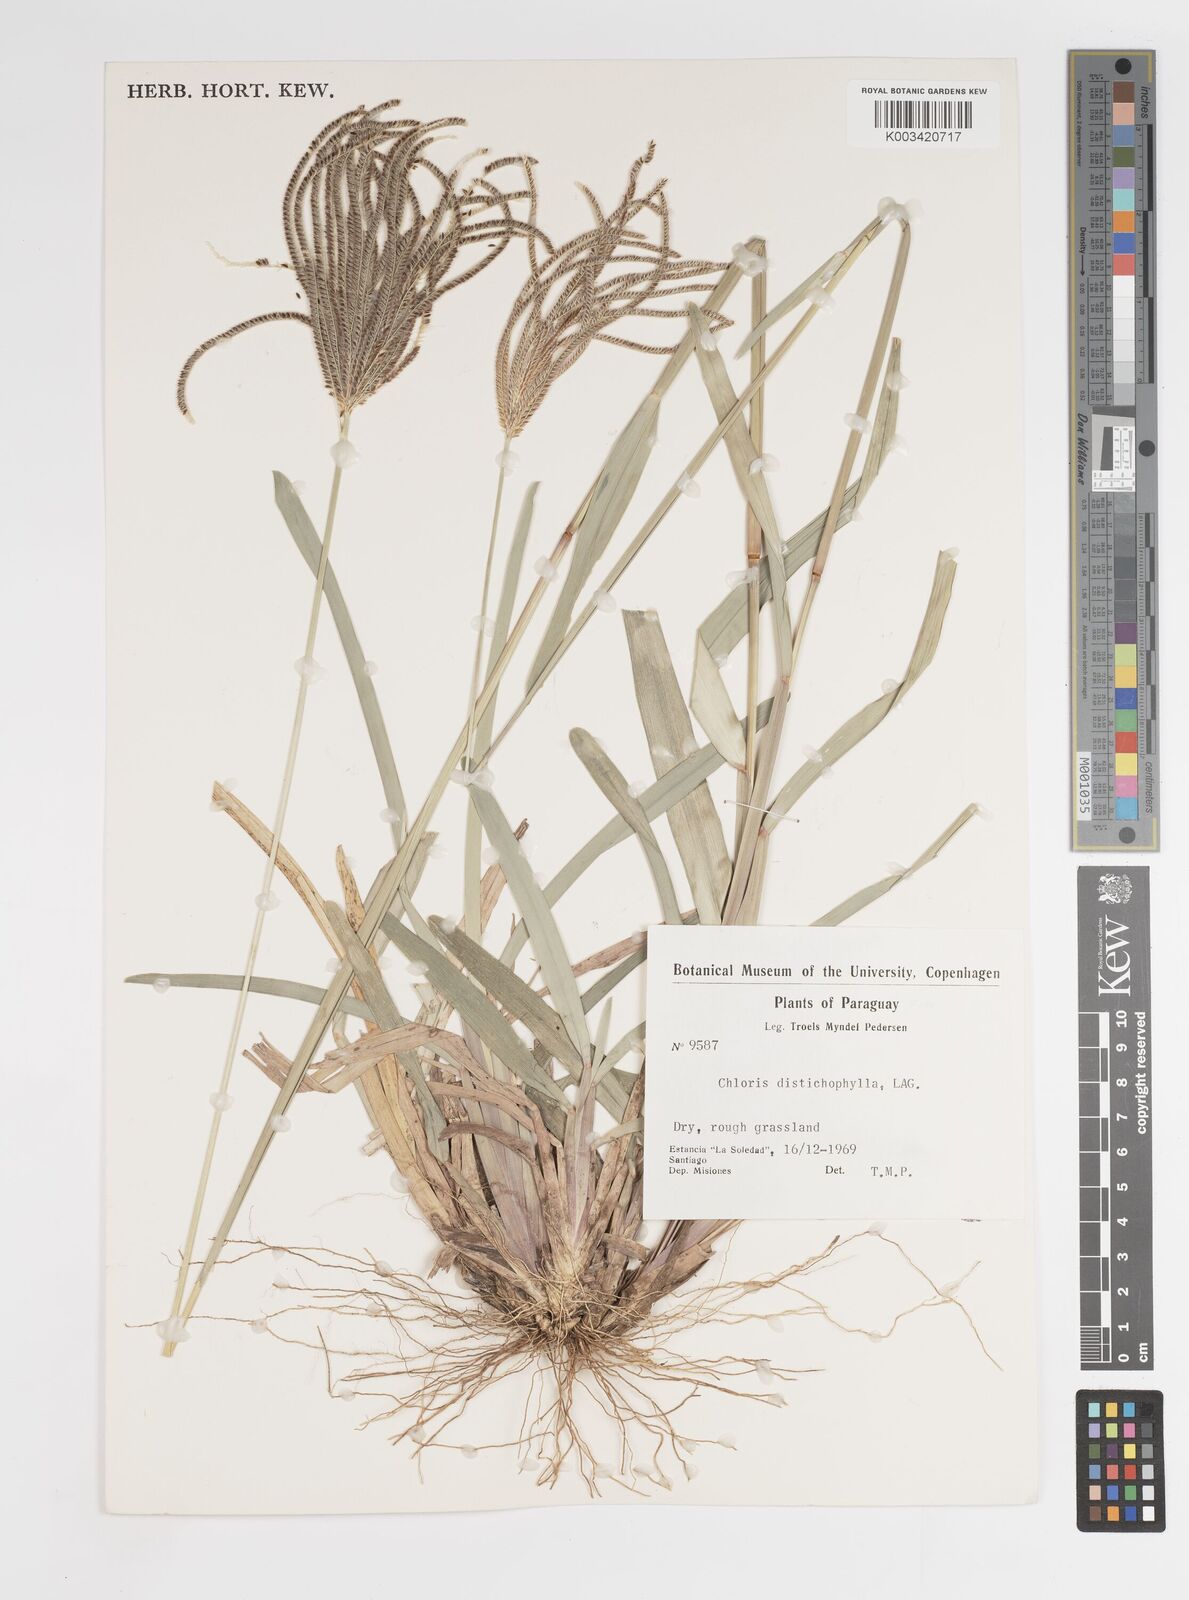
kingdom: Plantae
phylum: Tracheophyta
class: Liliopsida
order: Poales
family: Poaceae
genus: Eustachys
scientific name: Eustachys distichophylla
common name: Weeping fingergrass
